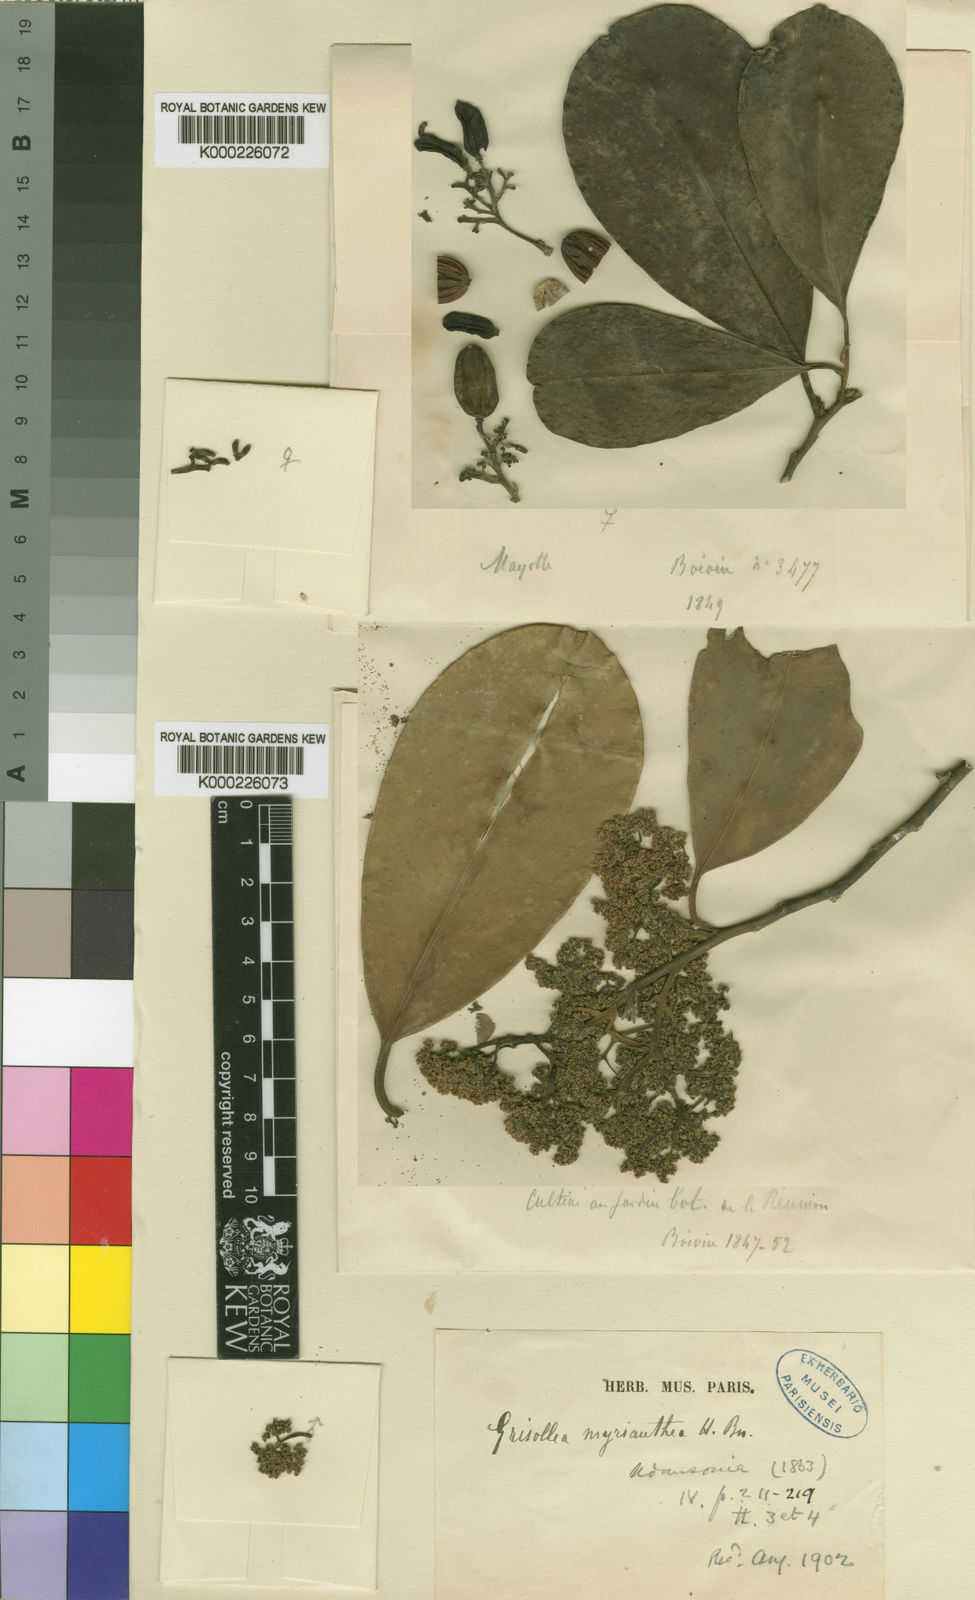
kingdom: Plantae
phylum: Tracheophyta
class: Magnoliopsida
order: Cardiopteridales
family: Stemonuraceae
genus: Grisollea
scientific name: Grisollea myriantha
